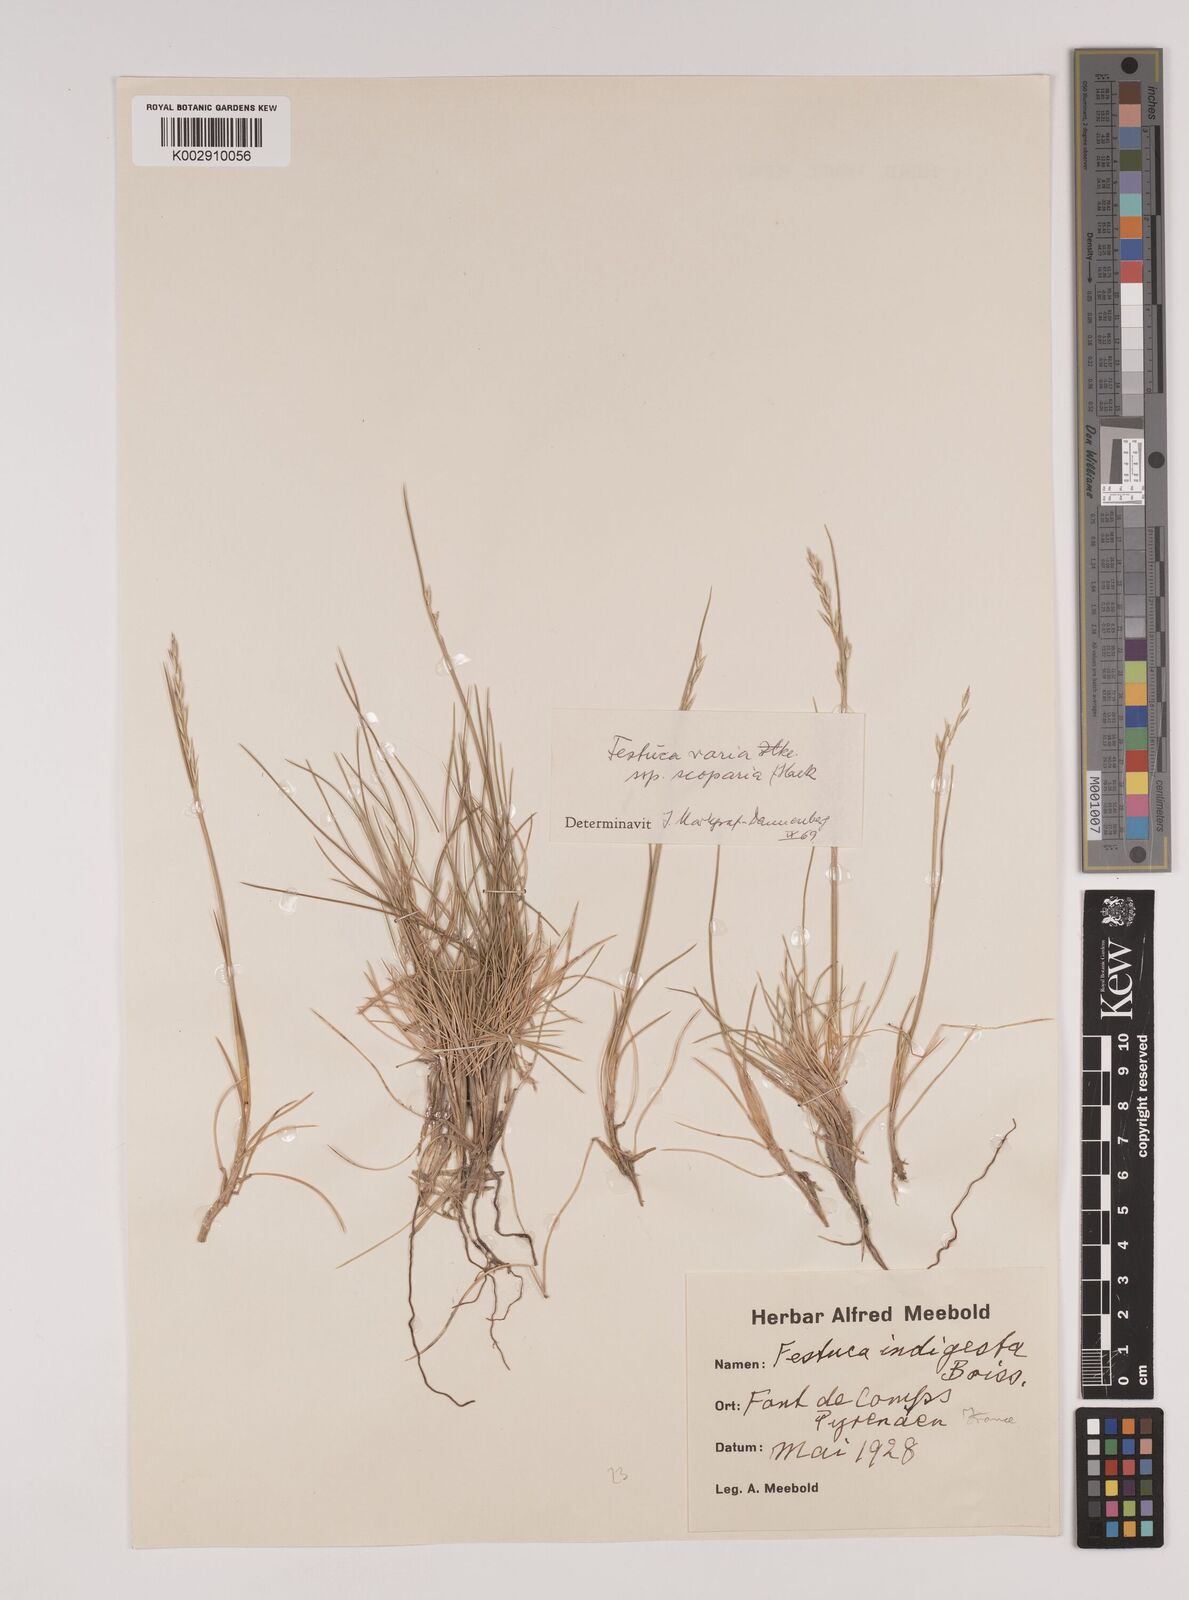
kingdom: Plantae
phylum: Tracheophyta
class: Liliopsida
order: Poales
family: Poaceae
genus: Festuca
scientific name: Festuca gautieri
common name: Spiky fescue
